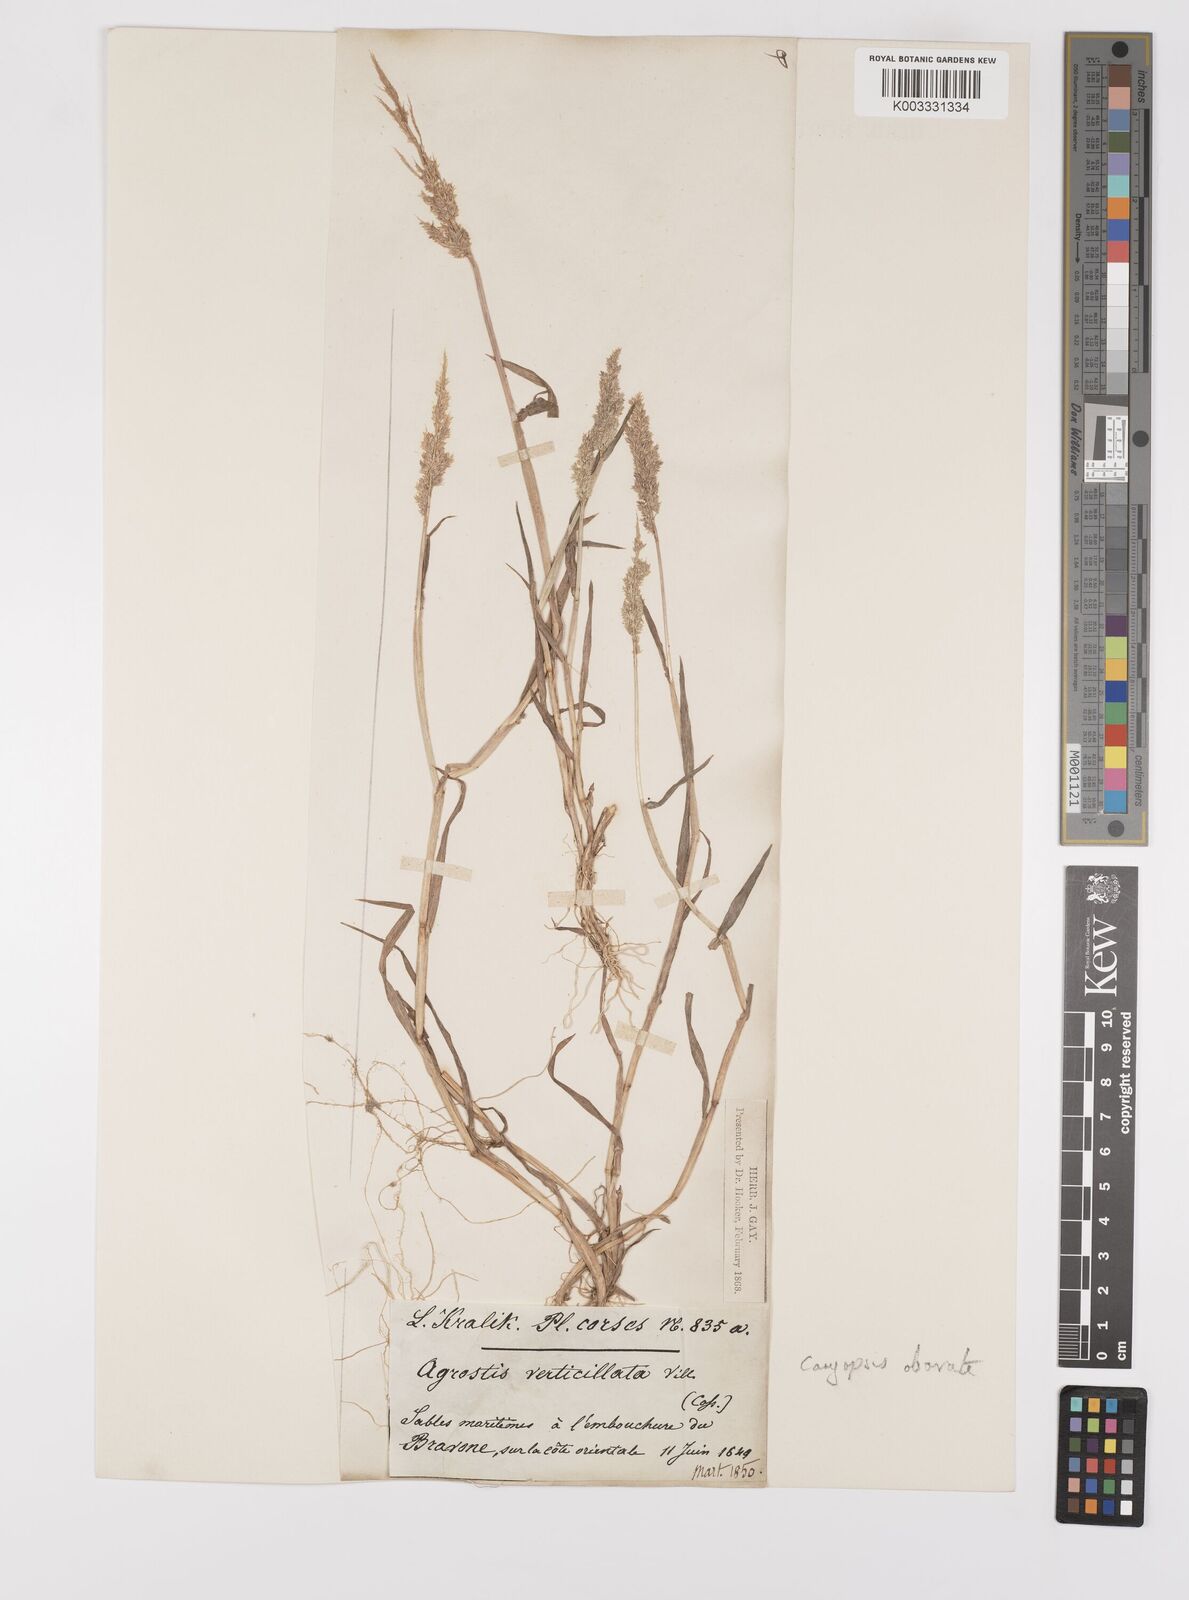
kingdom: Plantae
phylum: Tracheophyta
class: Liliopsida
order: Poales
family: Poaceae
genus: Polypogon
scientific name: Polypogon viridis
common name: Water bent
